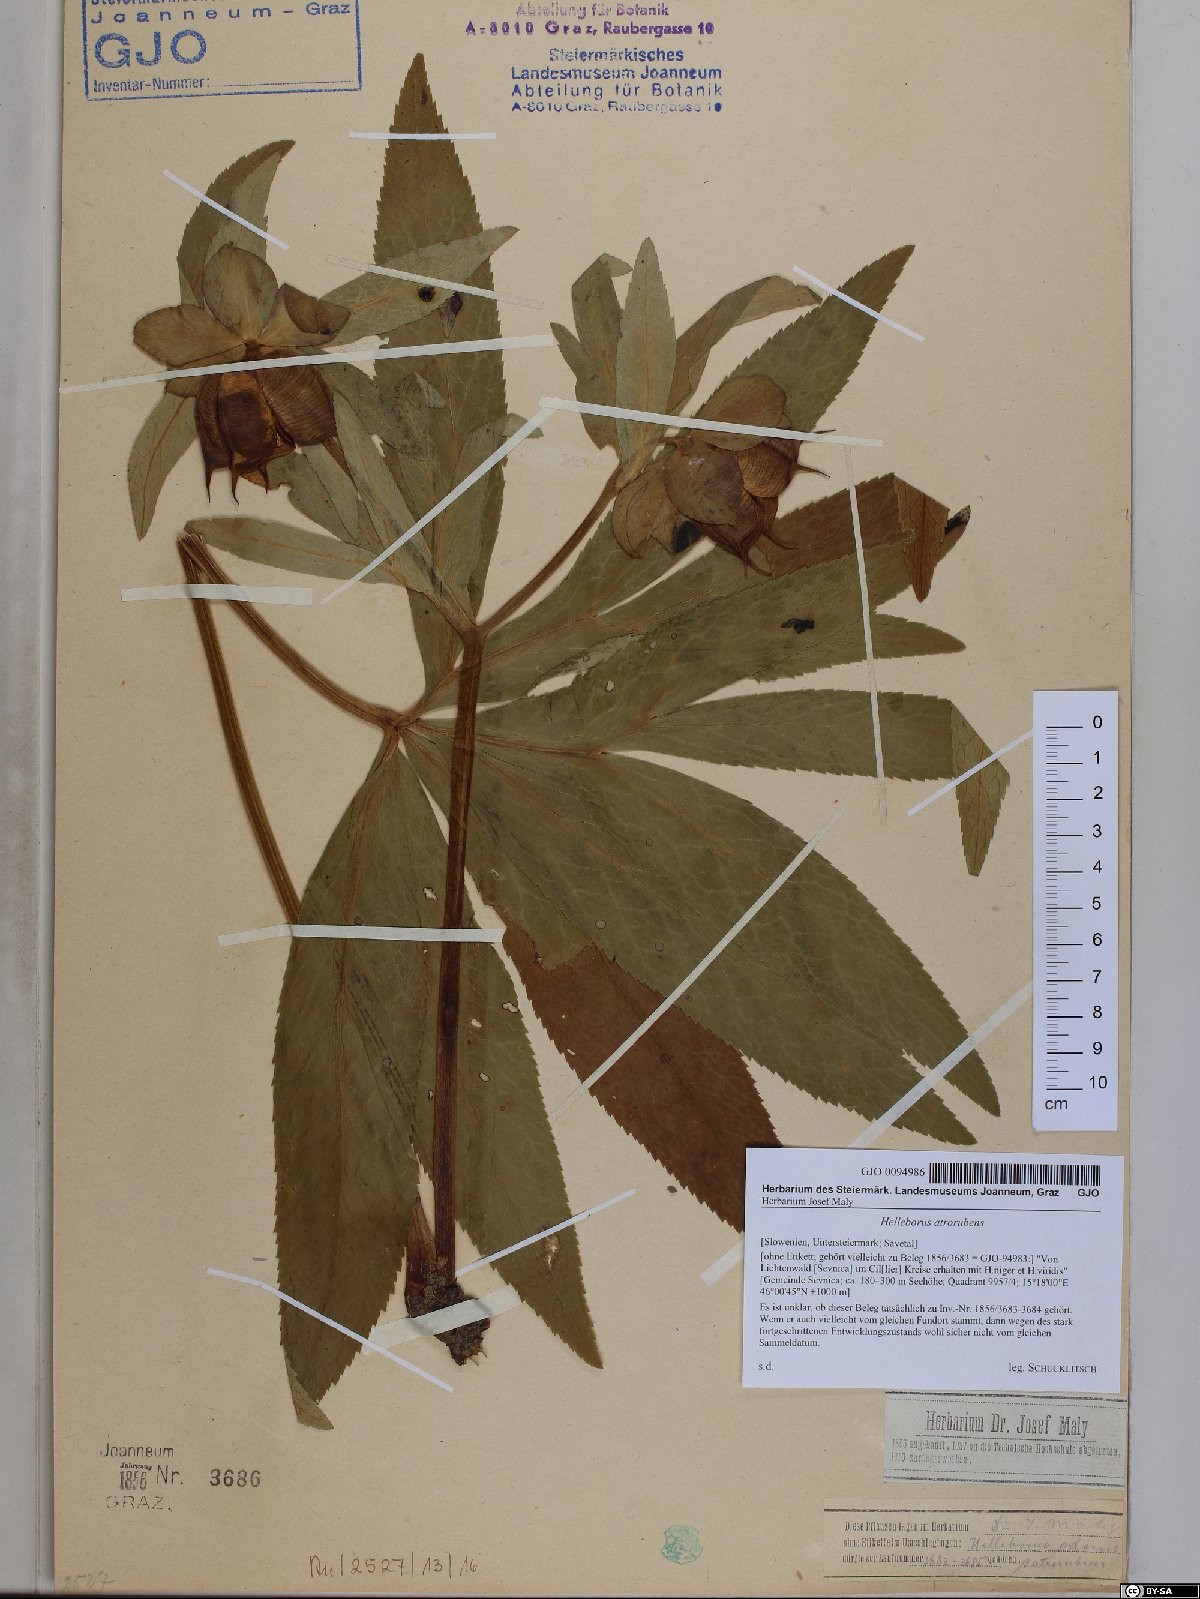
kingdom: Plantae
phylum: Tracheophyta
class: Magnoliopsida
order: Ranunculales
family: Ranunculaceae
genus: Helleborus
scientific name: Helleborus dumetorum
